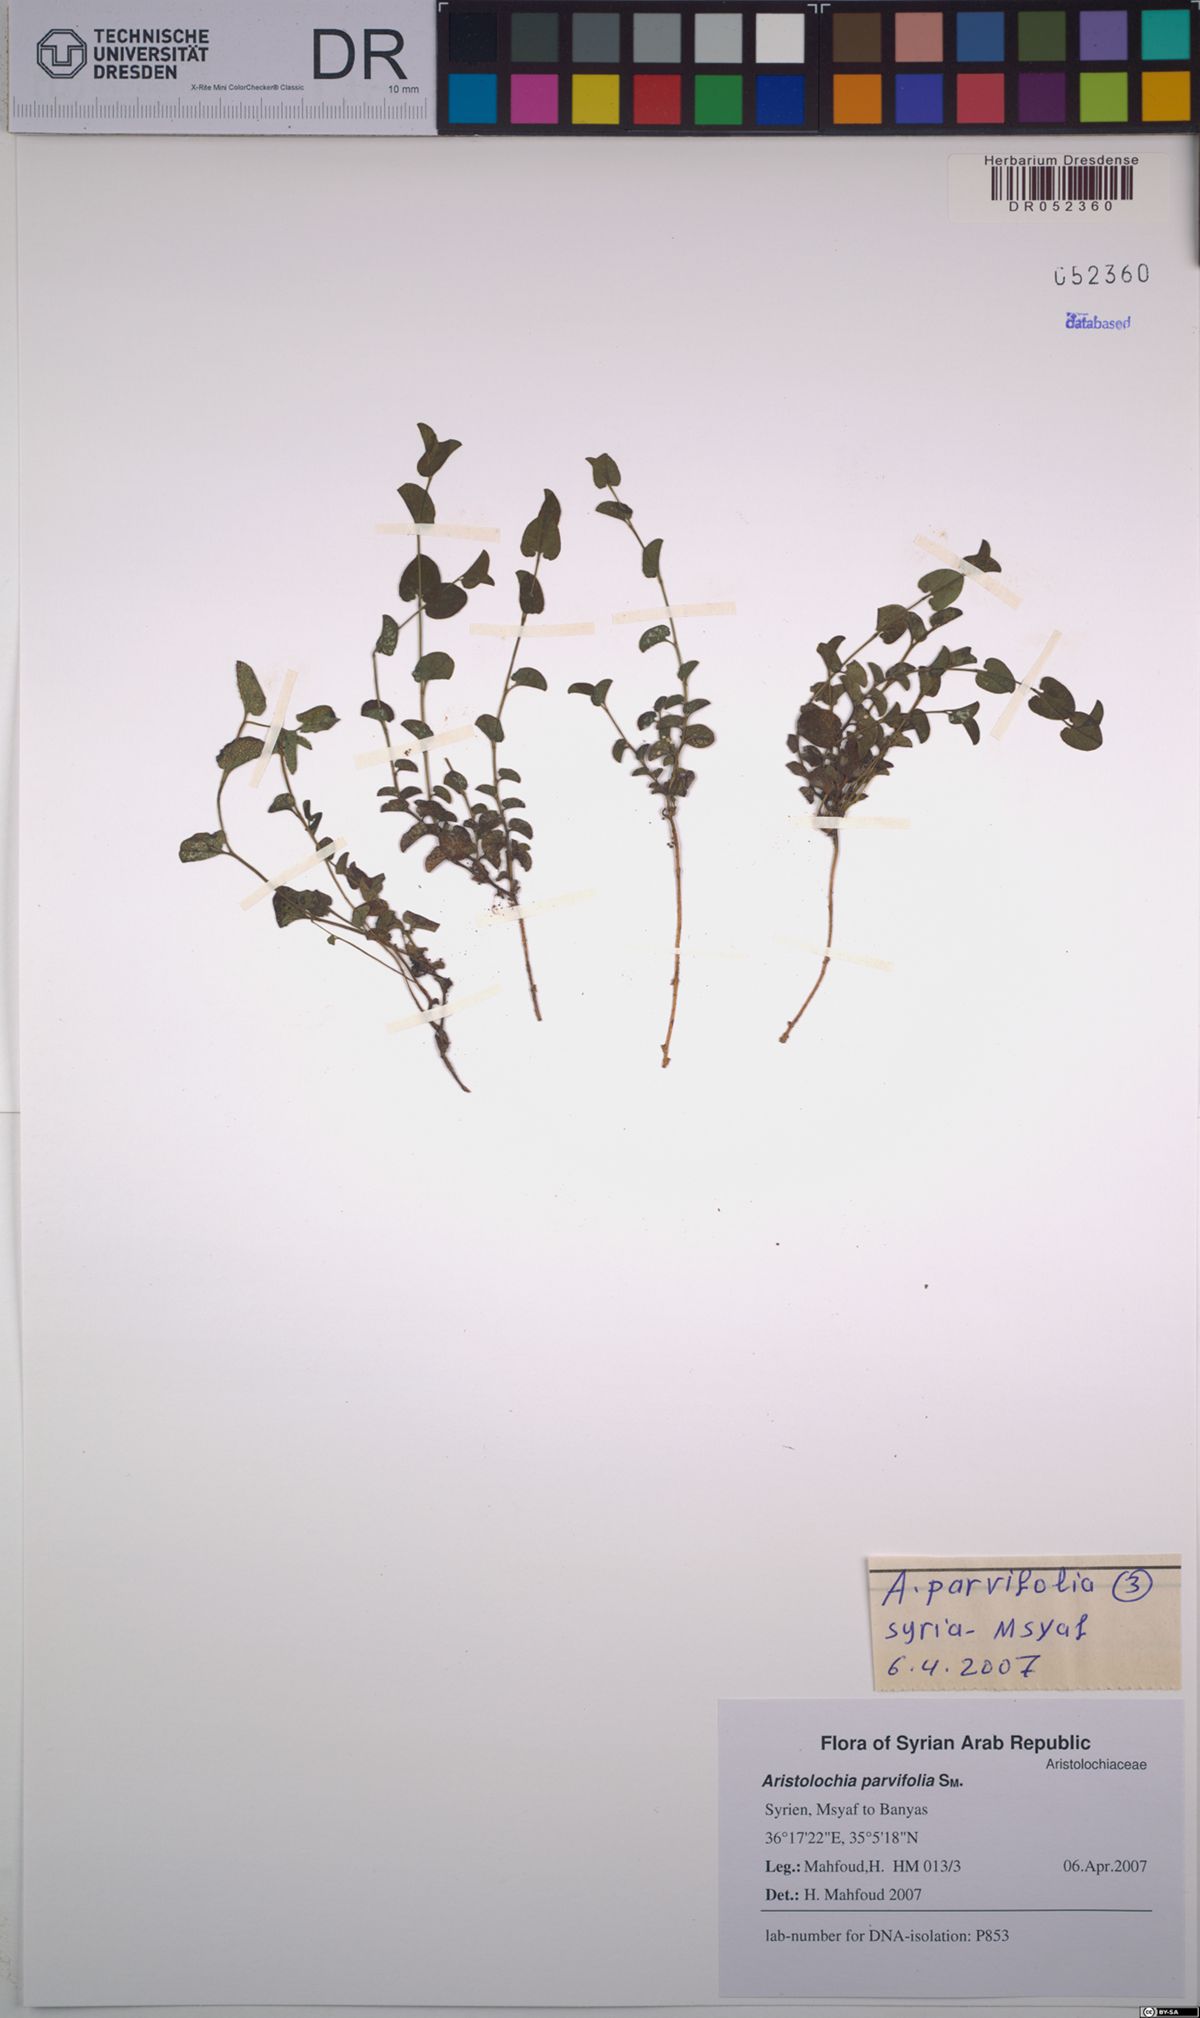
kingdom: Plantae
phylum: Tracheophyta
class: Magnoliopsida
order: Piperales
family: Aristolochiaceae
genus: Aristolochia
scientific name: Aristolochia parvifolia
